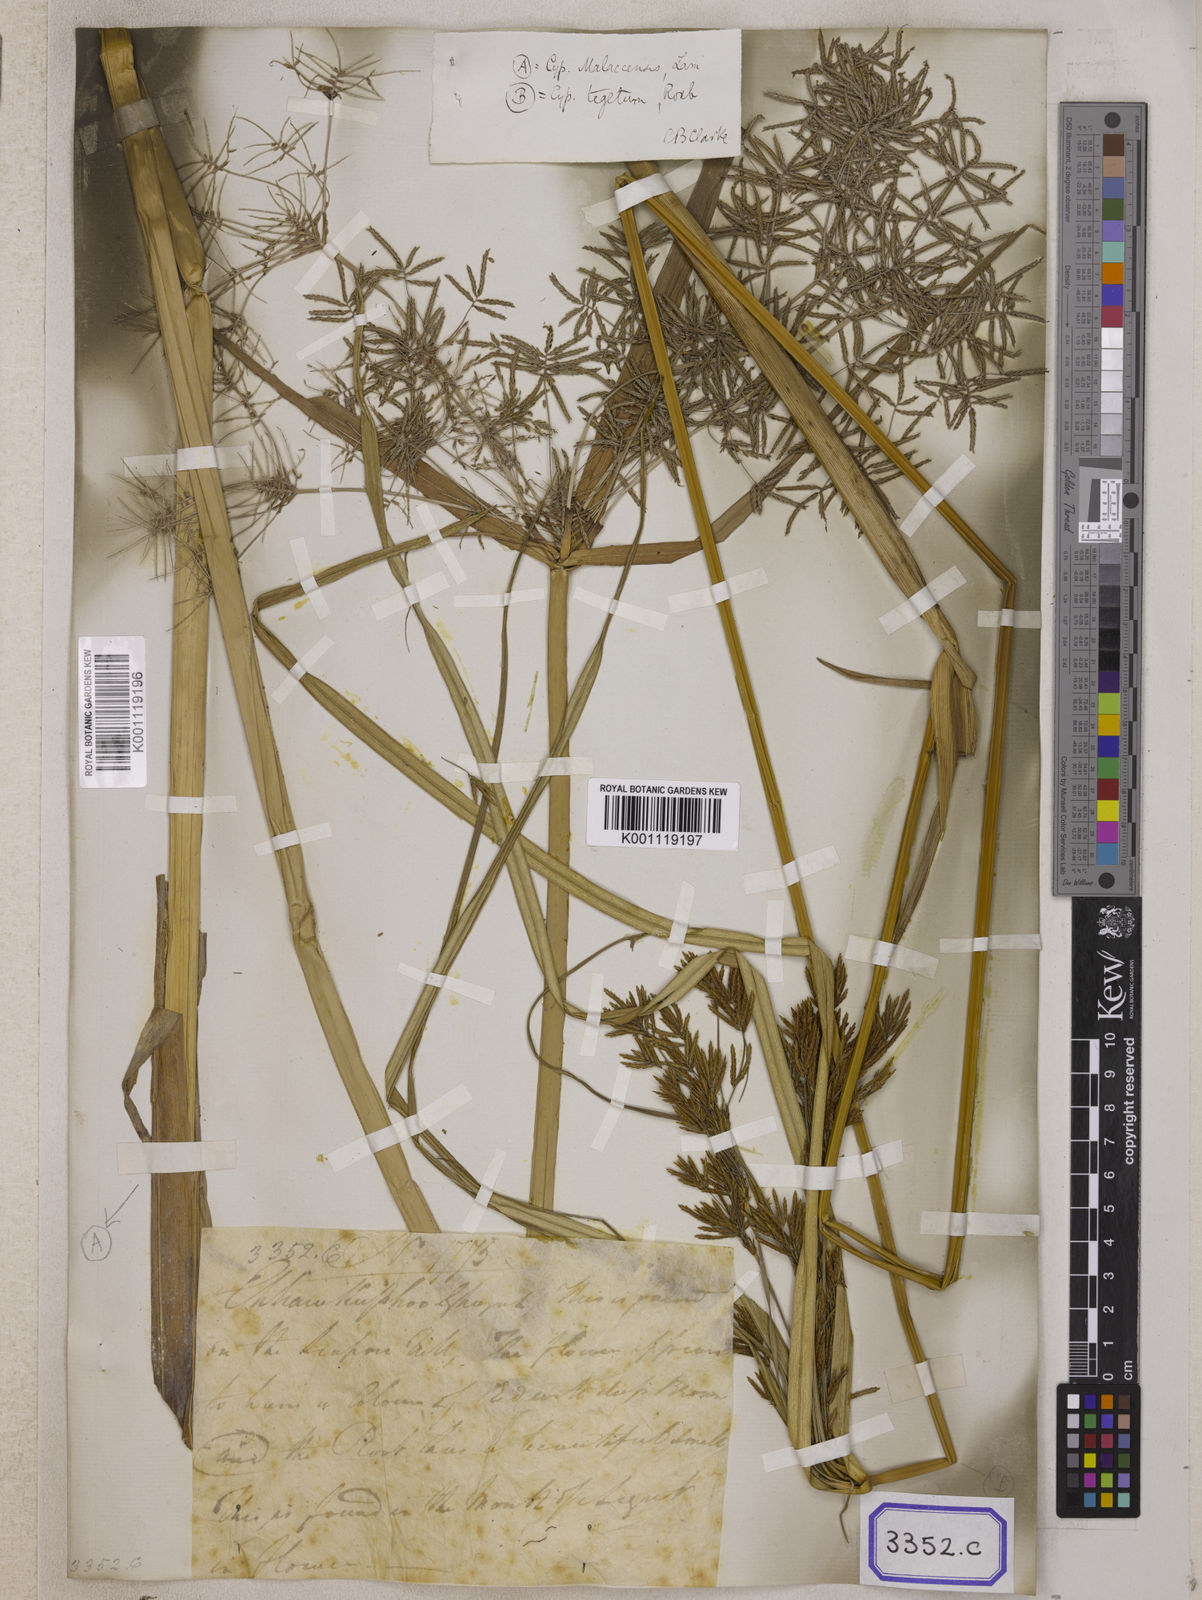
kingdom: Plantae
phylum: Tracheophyta
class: Liliopsida
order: Poales
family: Cyperaceae
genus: Cyperus
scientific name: Cyperus
